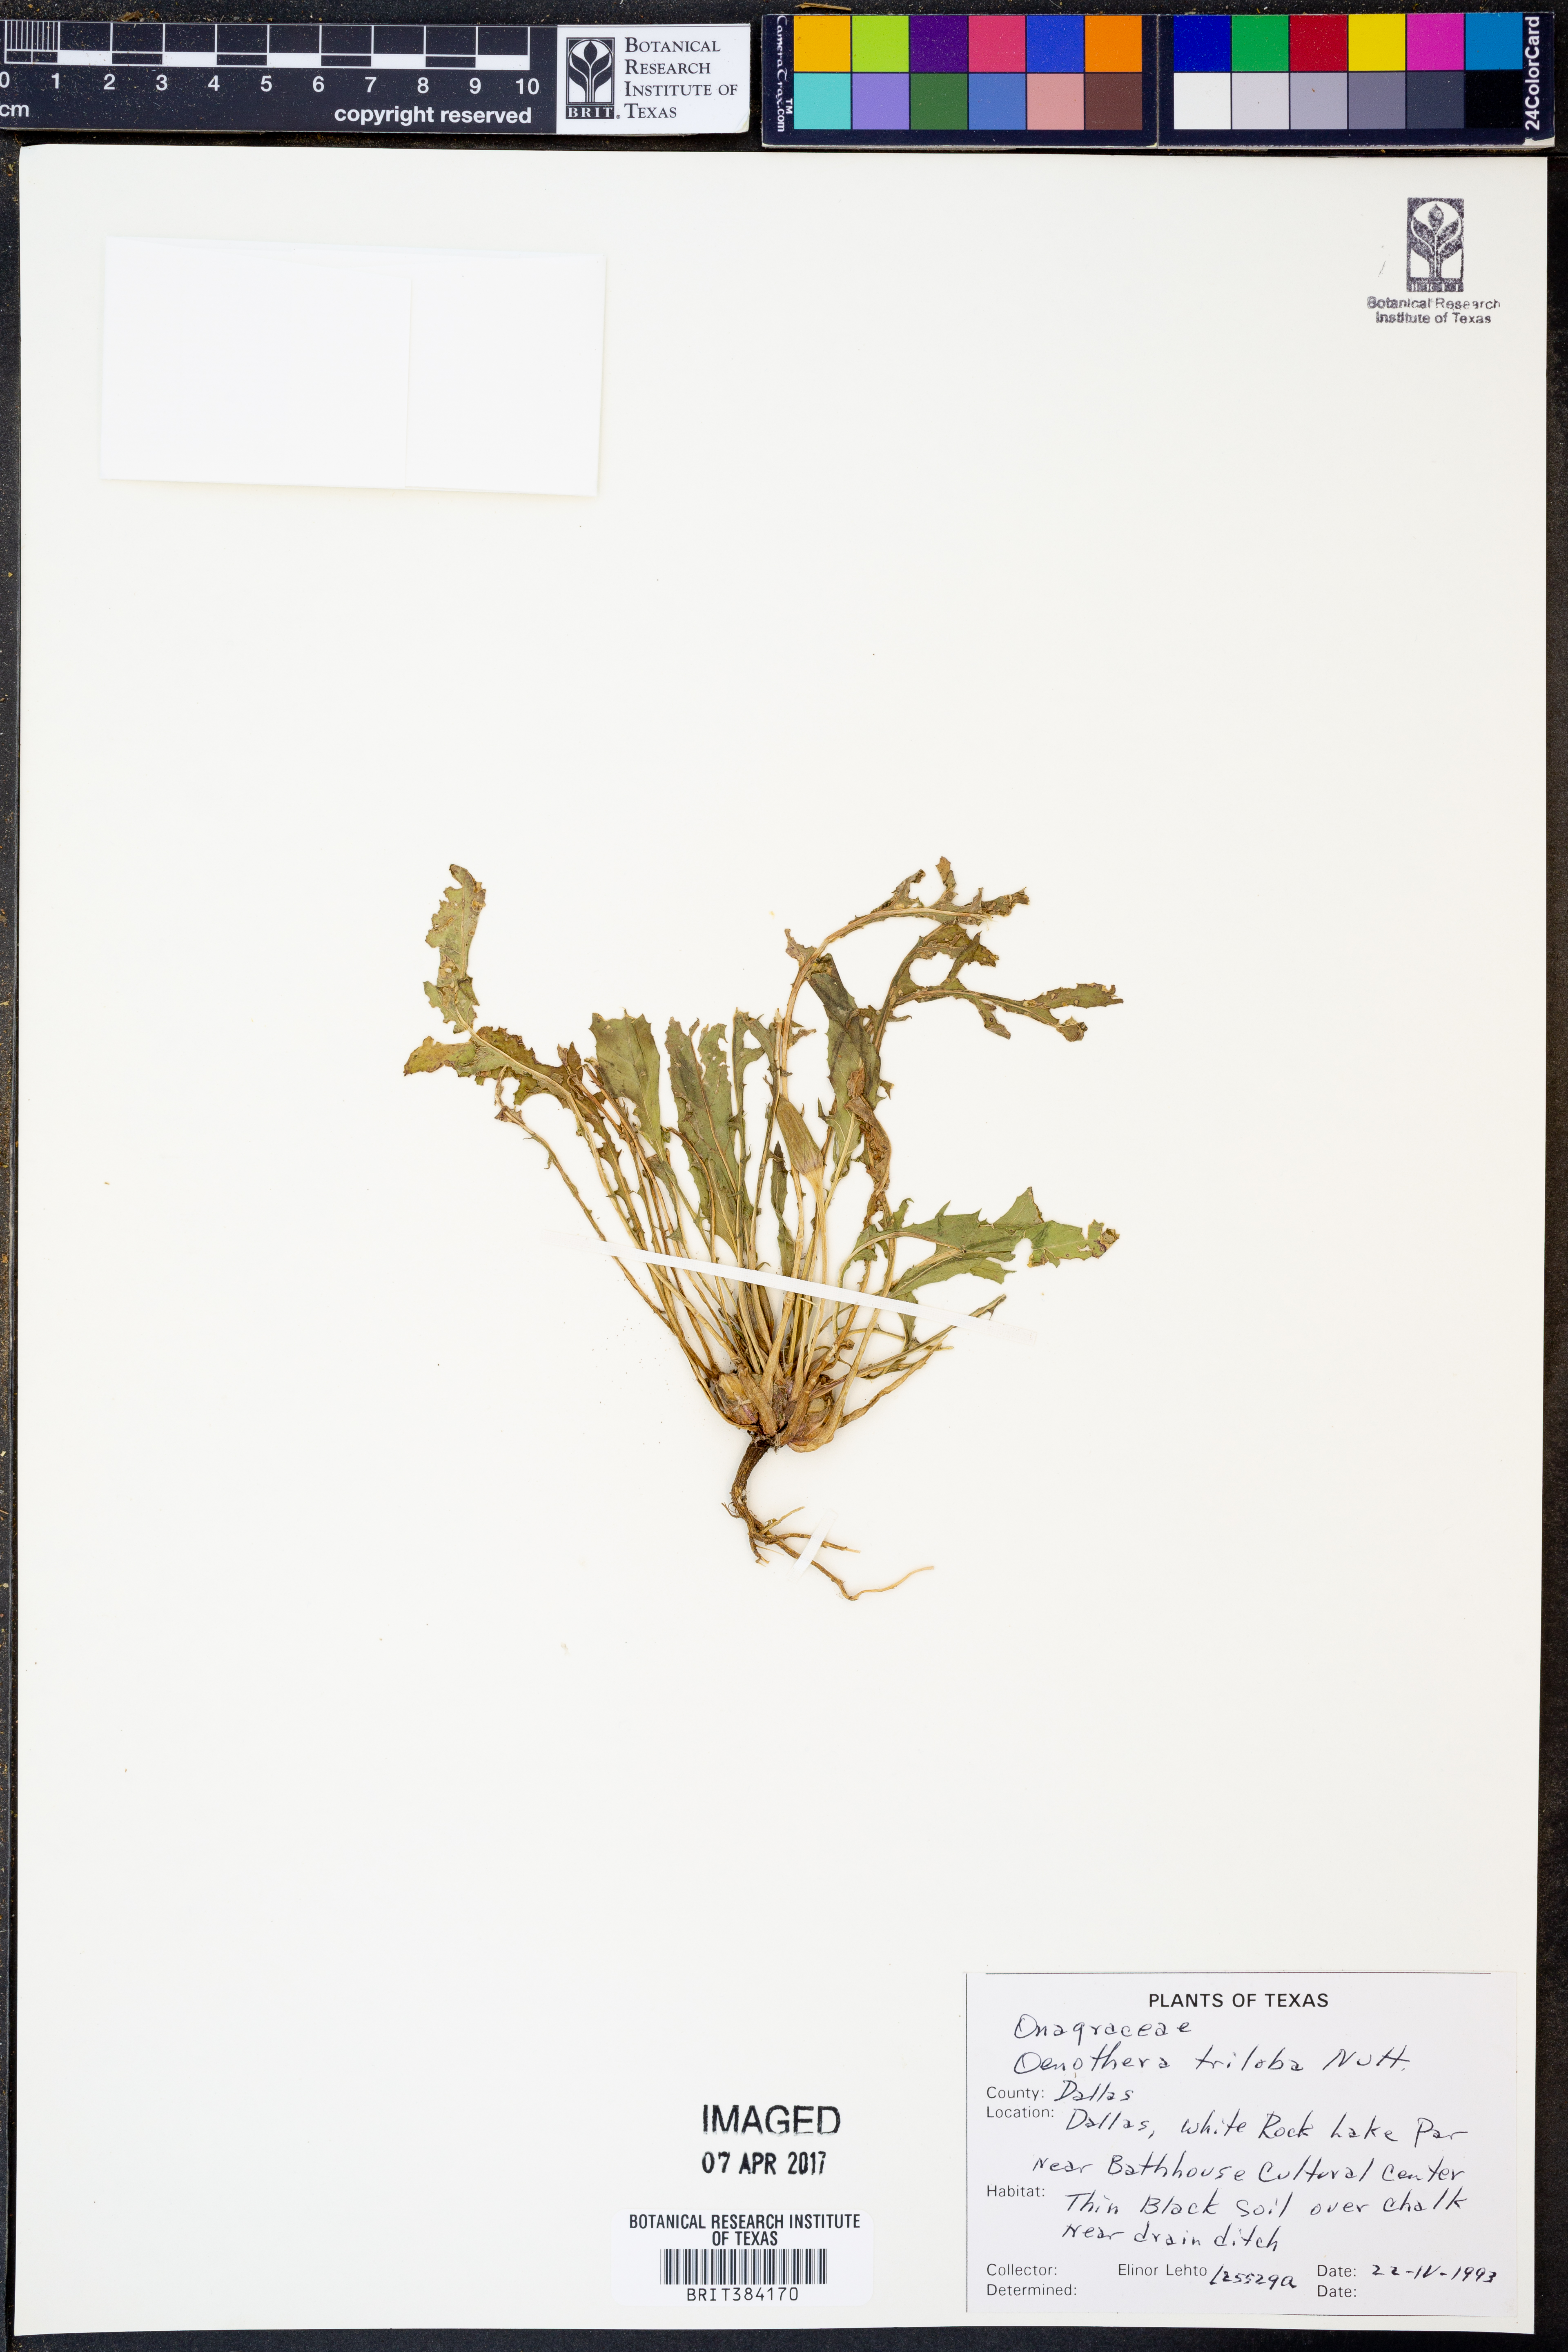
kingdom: Plantae
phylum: Tracheophyta
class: Magnoliopsida
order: Myrtales
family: Onagraceae
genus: Oenothera
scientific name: Oenothera triloba
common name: Sessile evening-primrose
